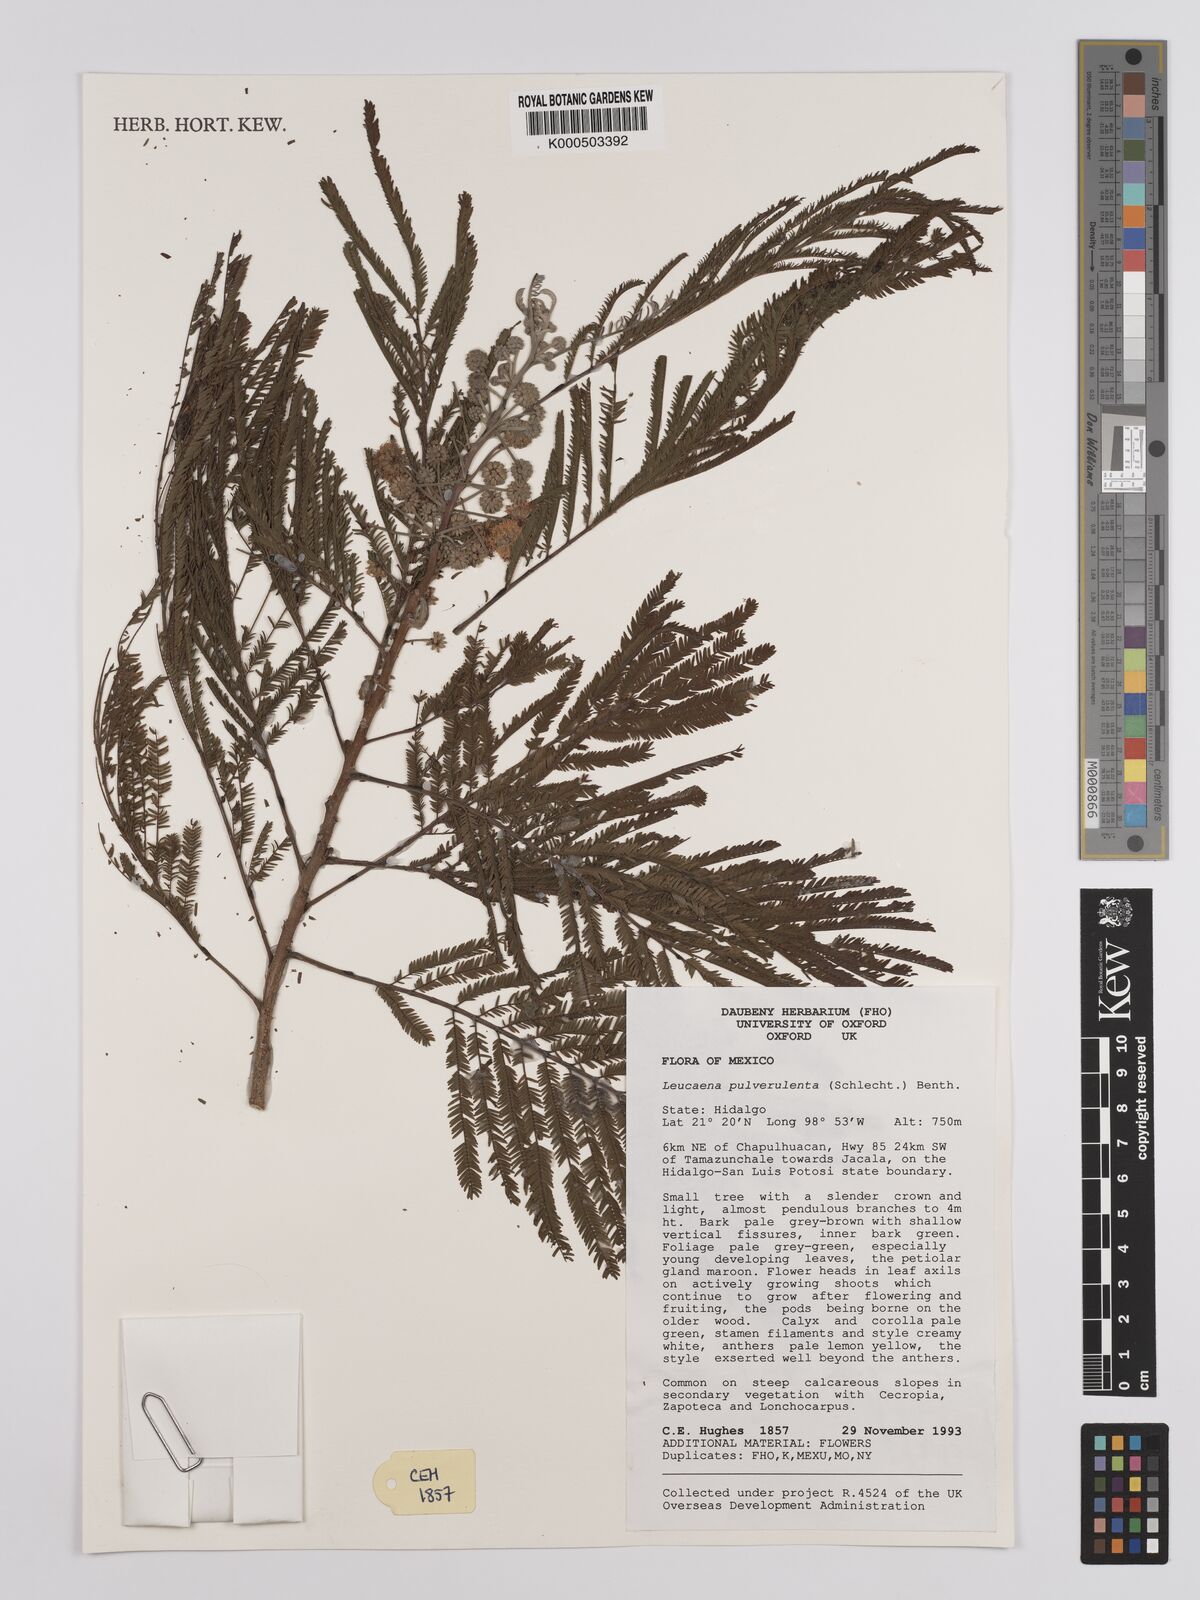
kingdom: Plantae
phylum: Tracheophyta
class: Magnoliopsida
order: Fabales
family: Fabaceae
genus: Leucaena
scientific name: Leucaena pulverulenta
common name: Great leadtree
